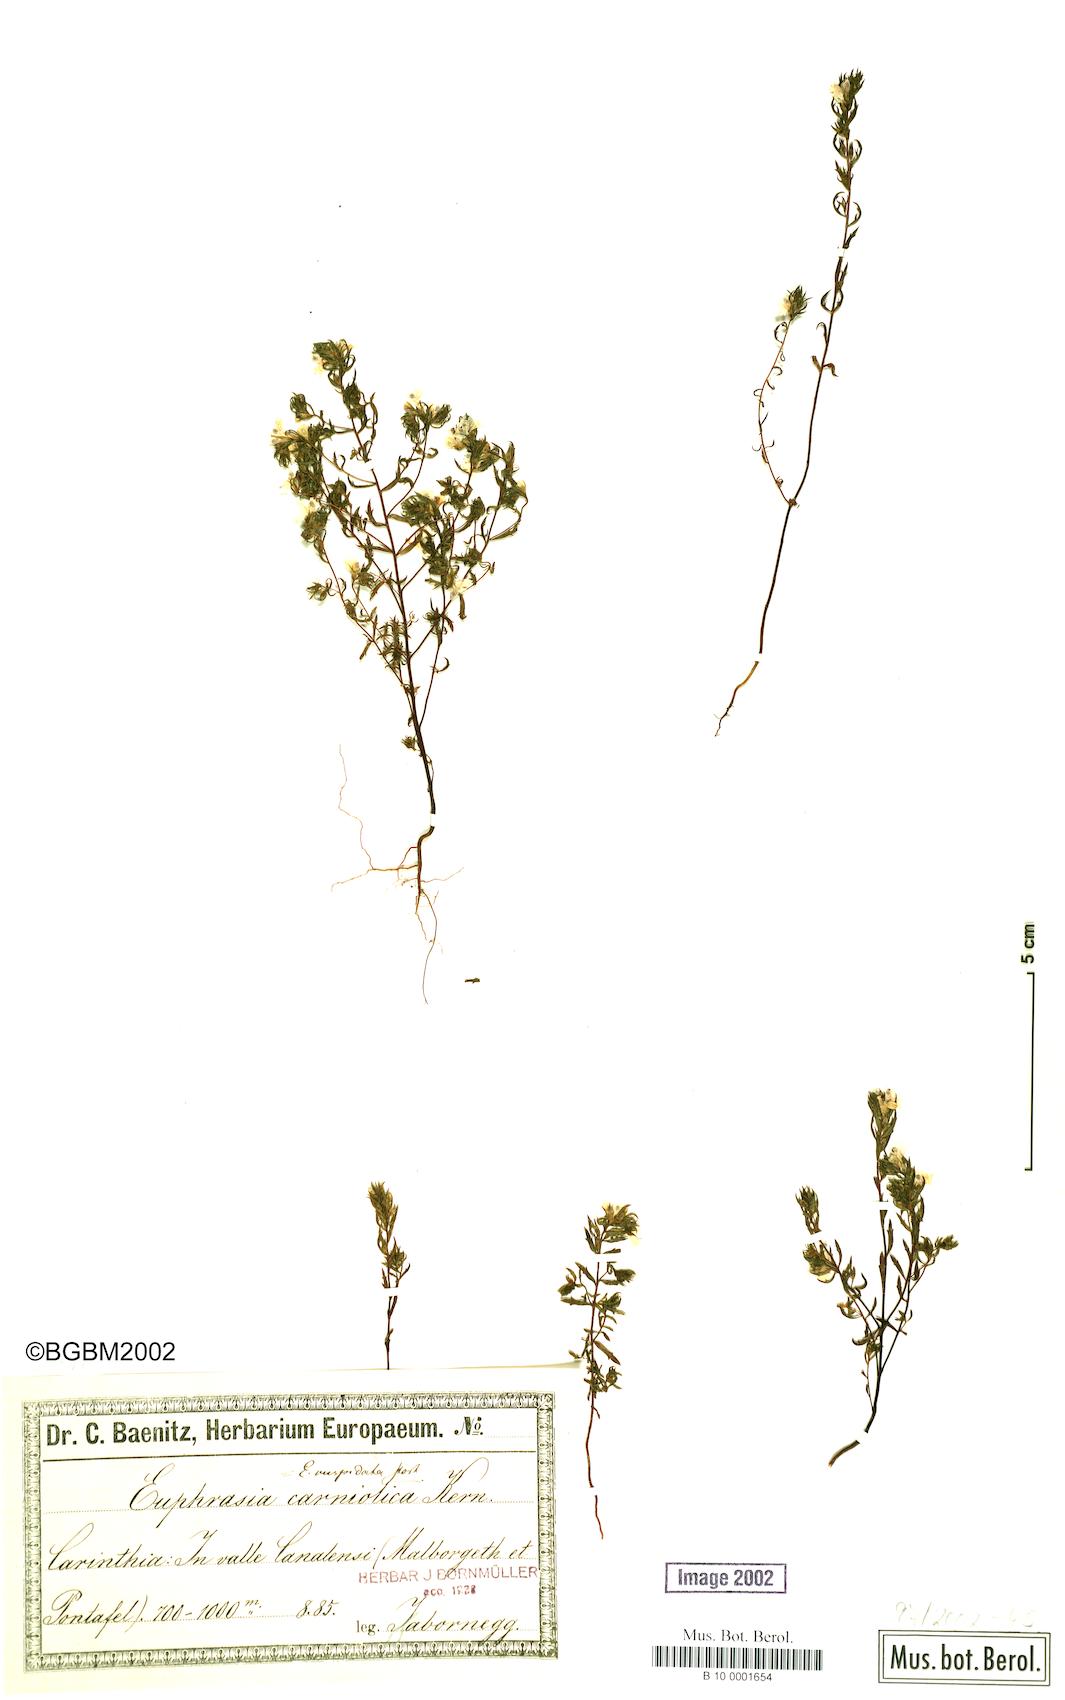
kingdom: Plantae
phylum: Tracheophyta
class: Magnoliopsida
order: Lamiales
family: Orobanchaceae
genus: Euphrasia
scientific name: Euphrasia cuspidata
